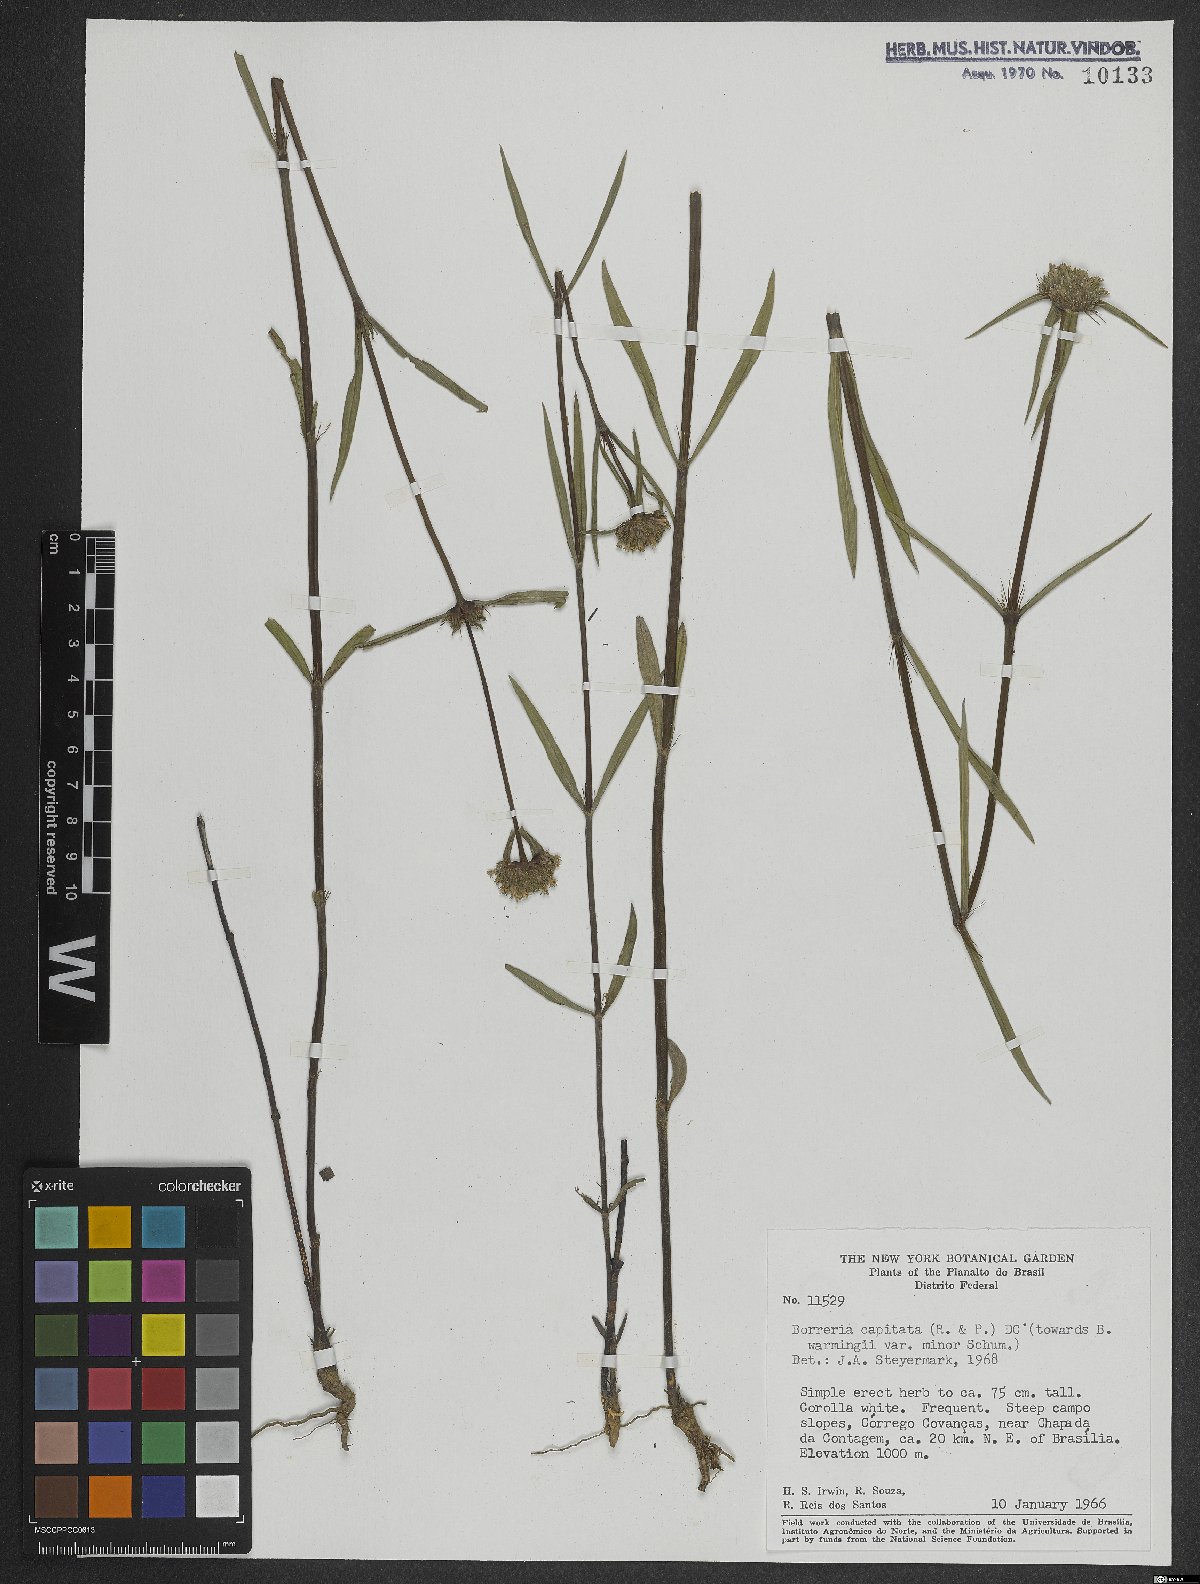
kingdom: Plantae
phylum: Tracheophyta
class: Magnoliopsida
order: Gentianales
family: Rubiaceae
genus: Spermacoce
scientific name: Spermacoce capitata
